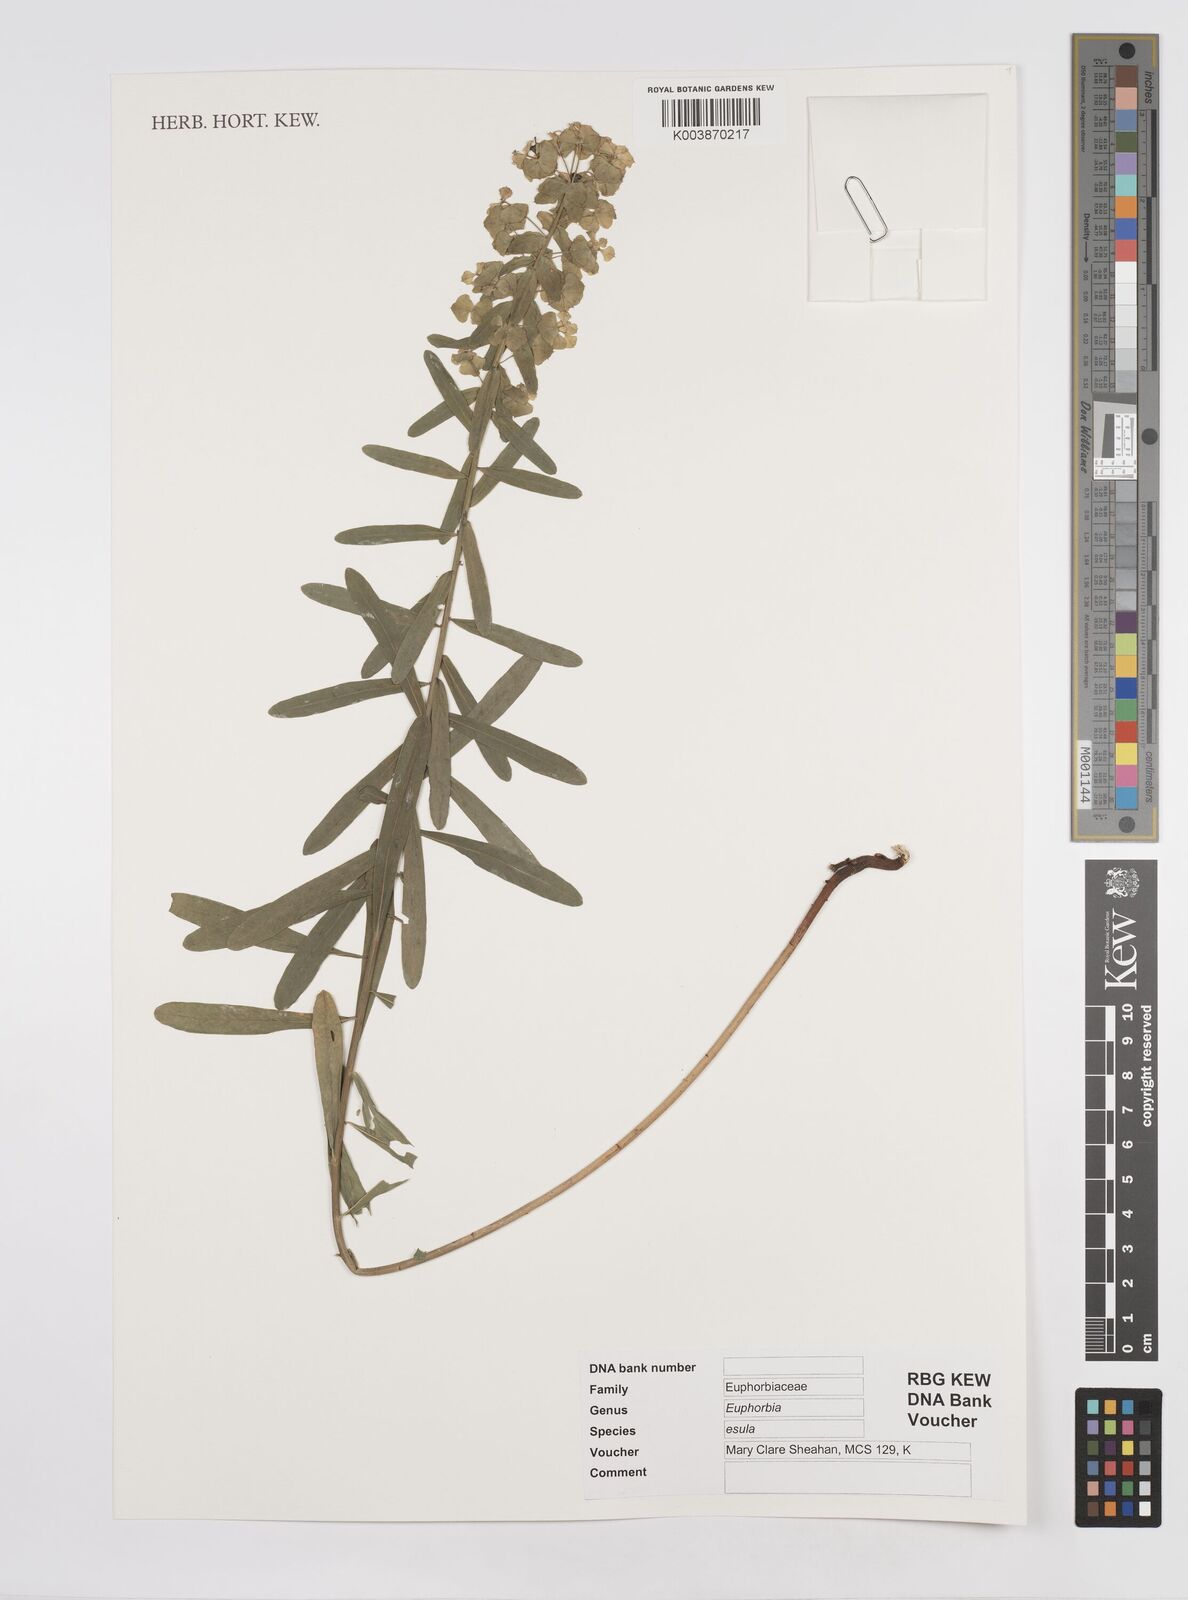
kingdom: Plantae
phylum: Tracheophyta
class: Magnoliopsida
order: Malpighiales
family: Euphorbiaceae
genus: Euphorbia
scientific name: Euphorbia esula
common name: Leafy spurge
